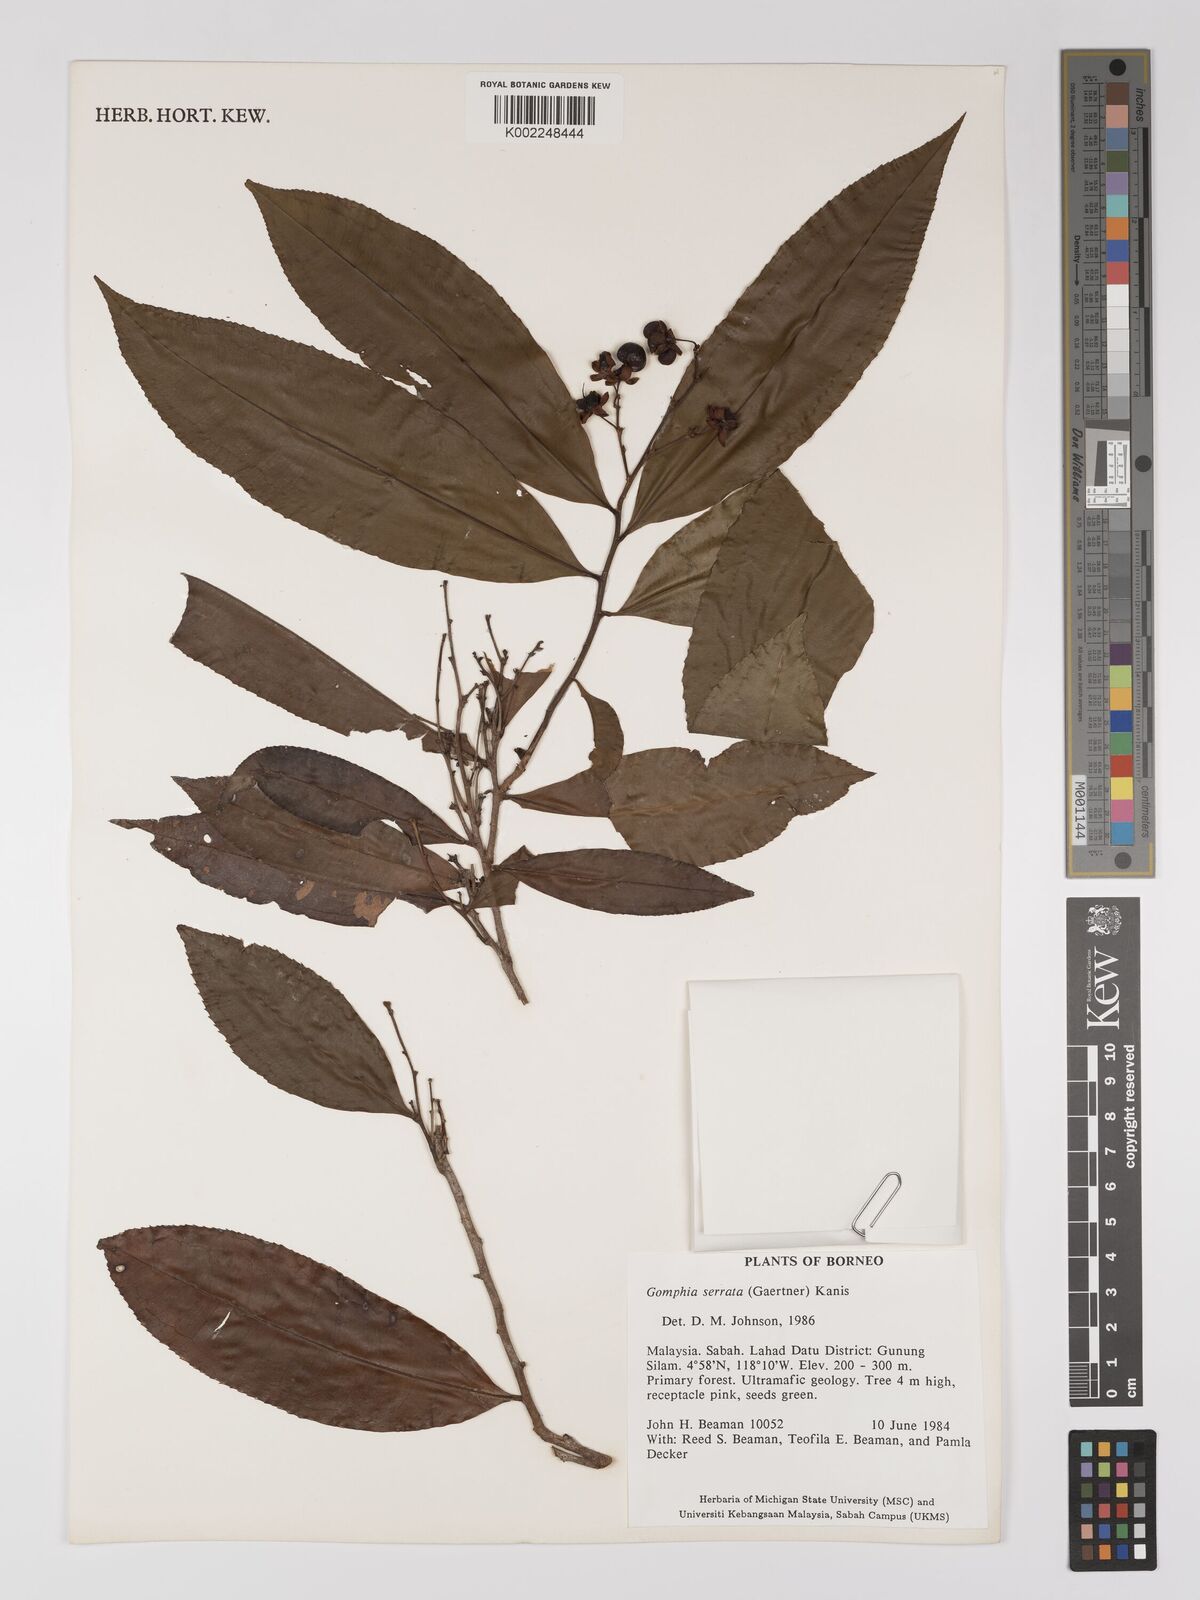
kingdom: Plantae
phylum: Tracheophyta
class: Magnoliopsida
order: Malpighiales
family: Ochnaceae
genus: Gomphia
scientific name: Gomphia serrata
